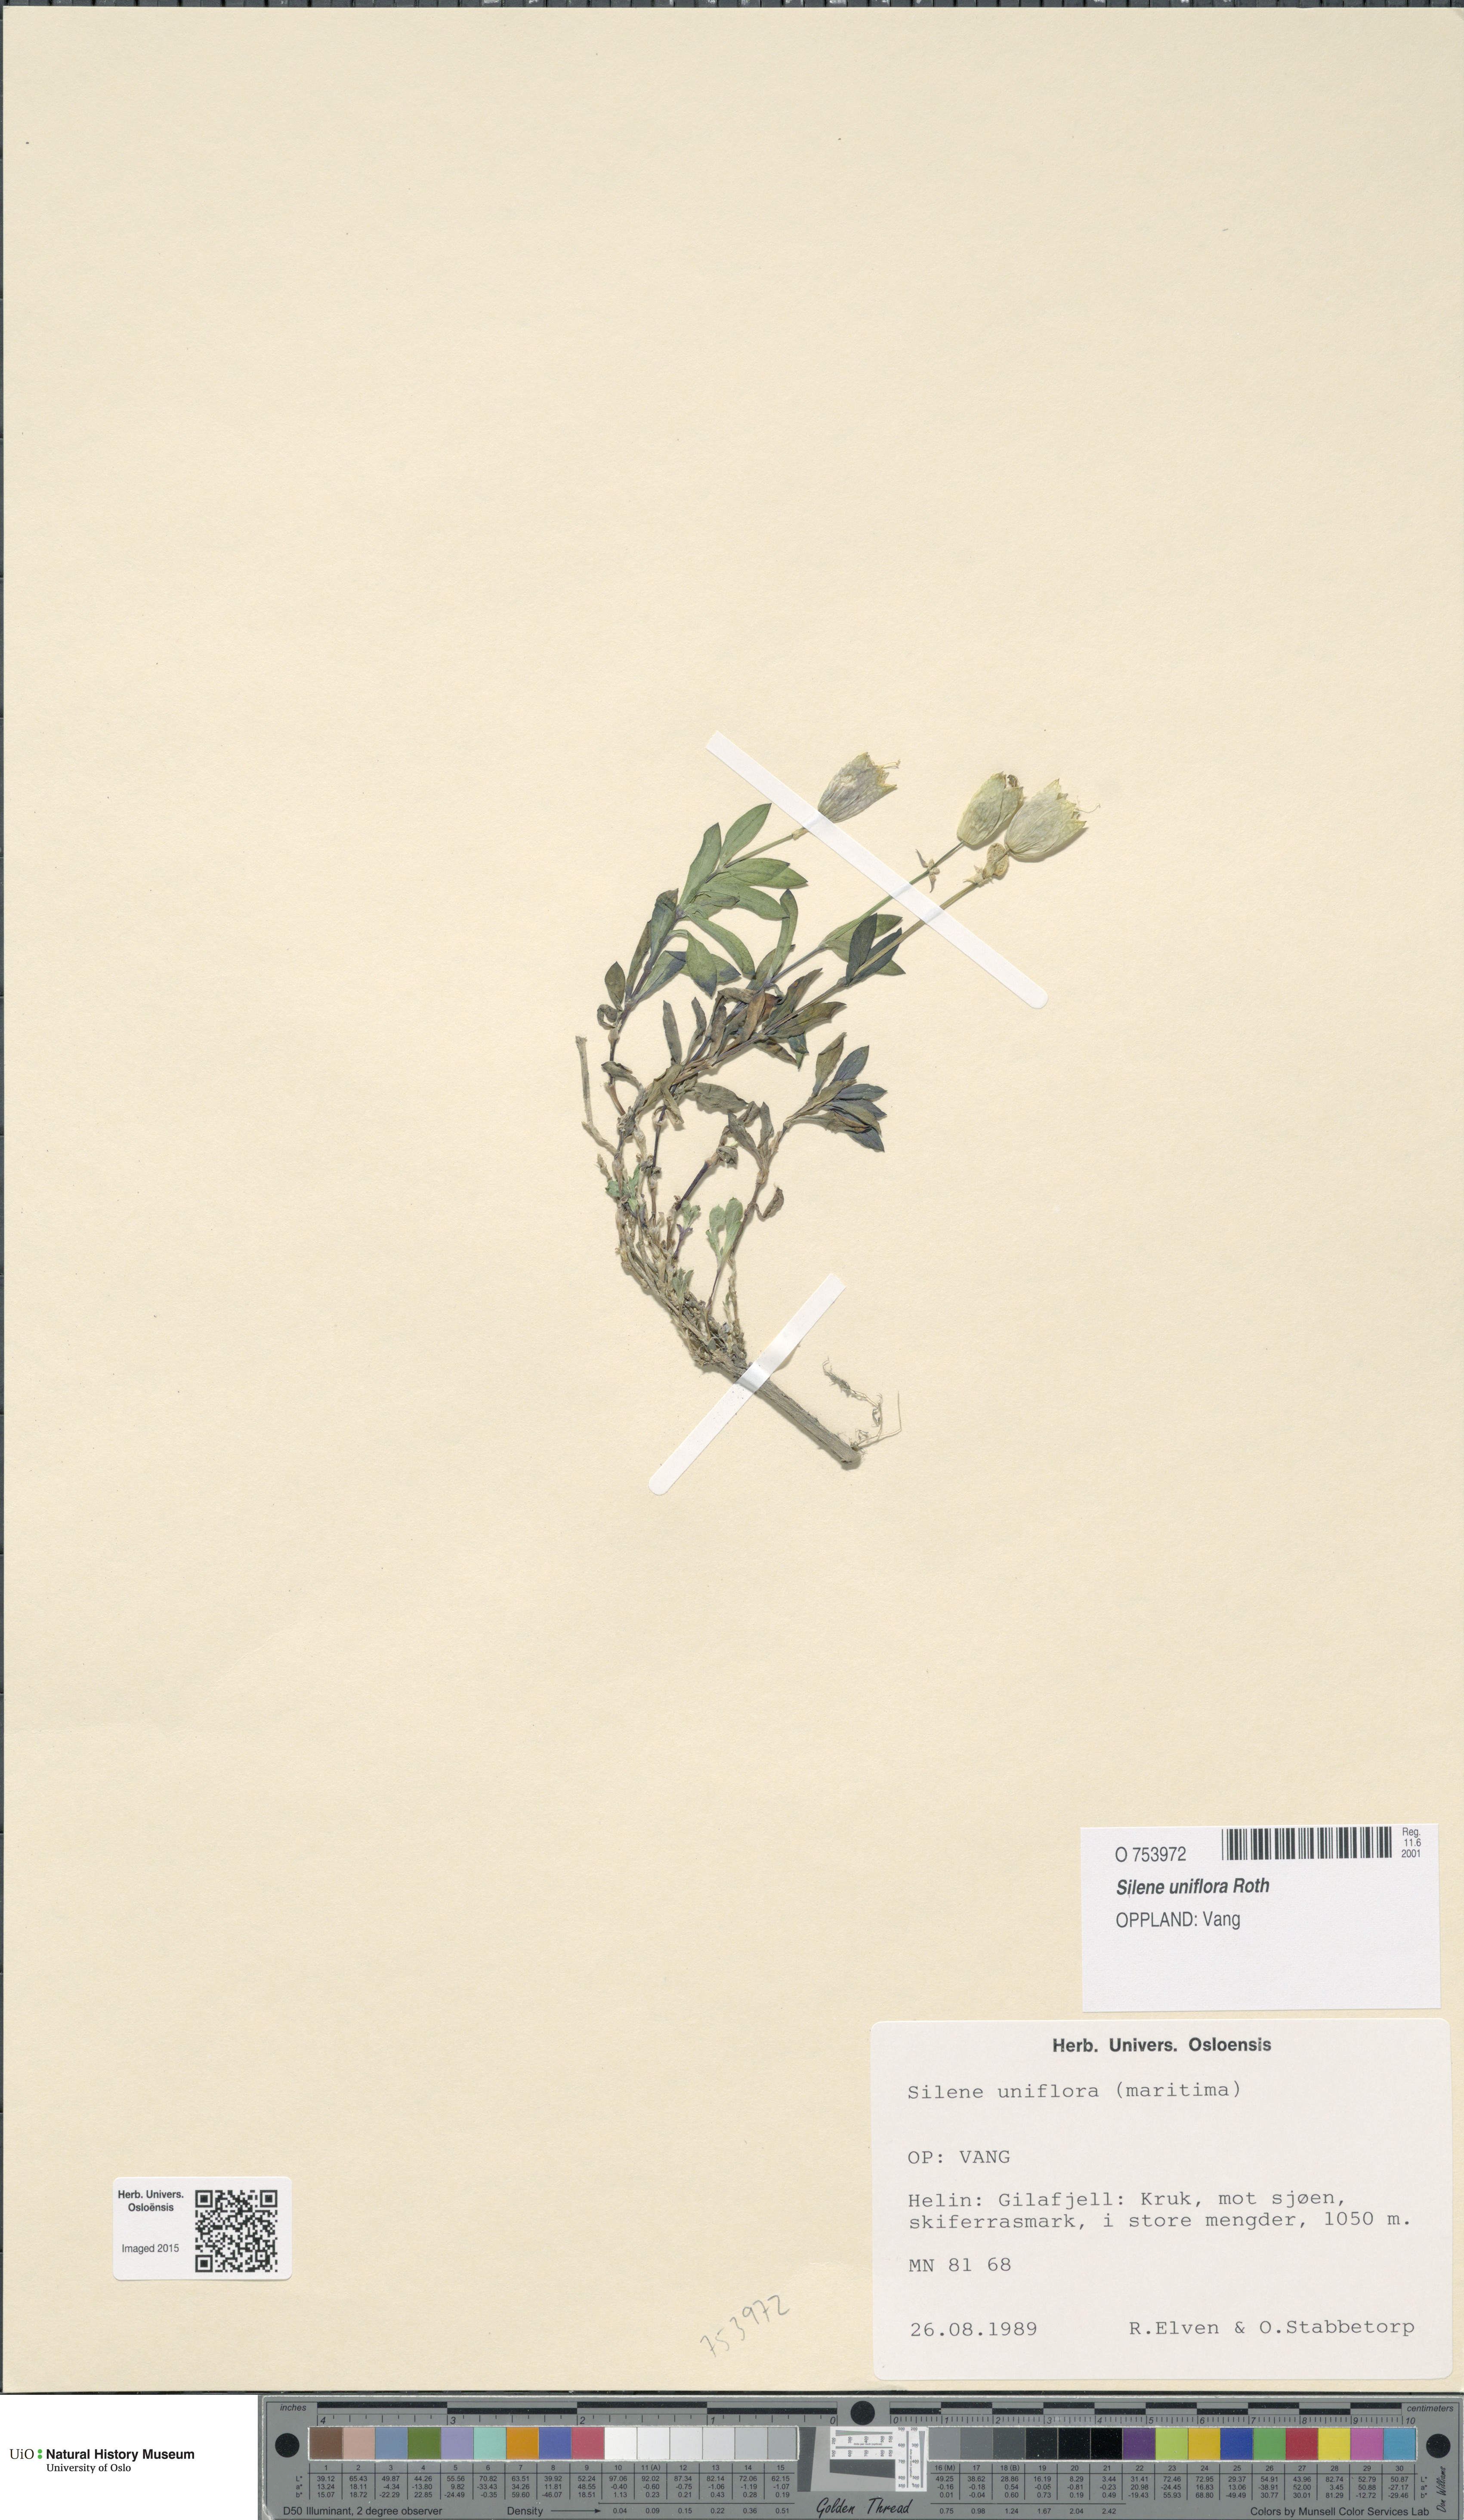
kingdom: Plantae
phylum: Tracheophyta
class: Magnoliopsida
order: Caryophyllales
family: Caryophyllaceae
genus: Silene
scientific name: Silene uniflora
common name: Sea campion
